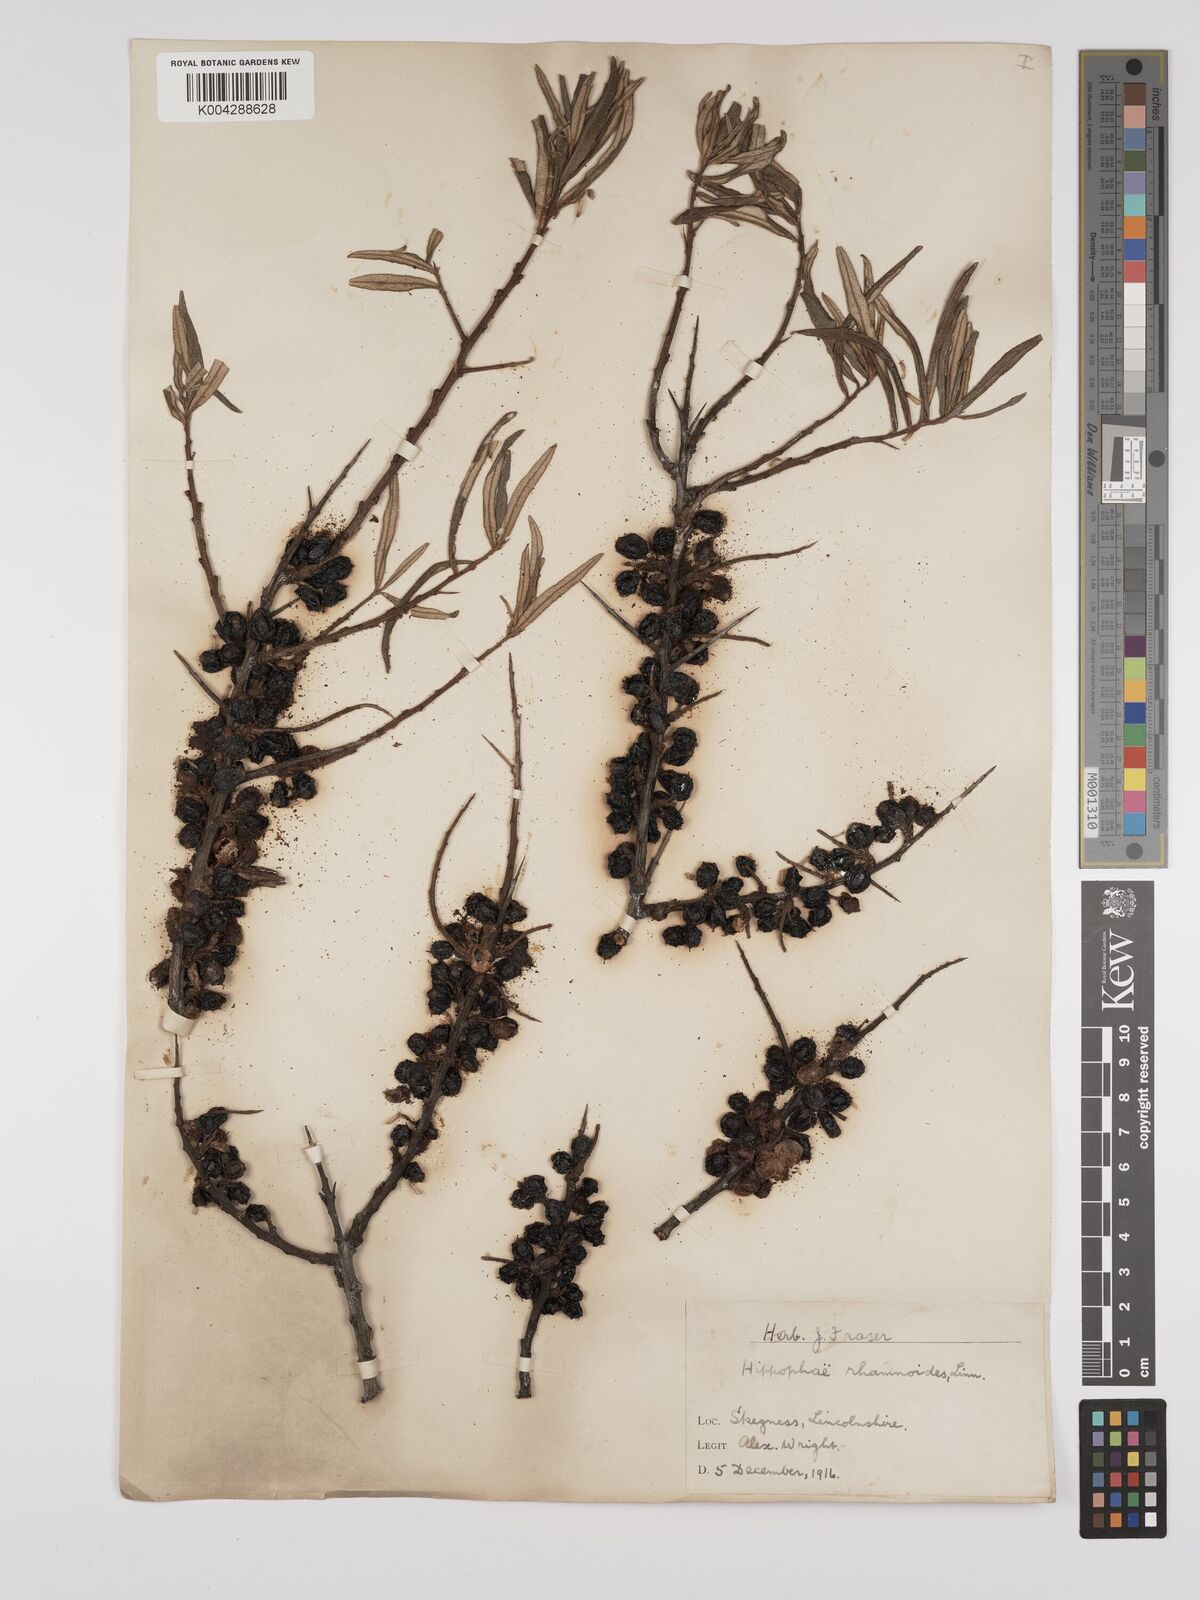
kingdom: Plantae
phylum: Tracheophyta
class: Magnoliopsida
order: Rosales
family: Elaeagnaceae
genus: Hippophae
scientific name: Hippophae rhamnoides
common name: Sea-buckthorn
